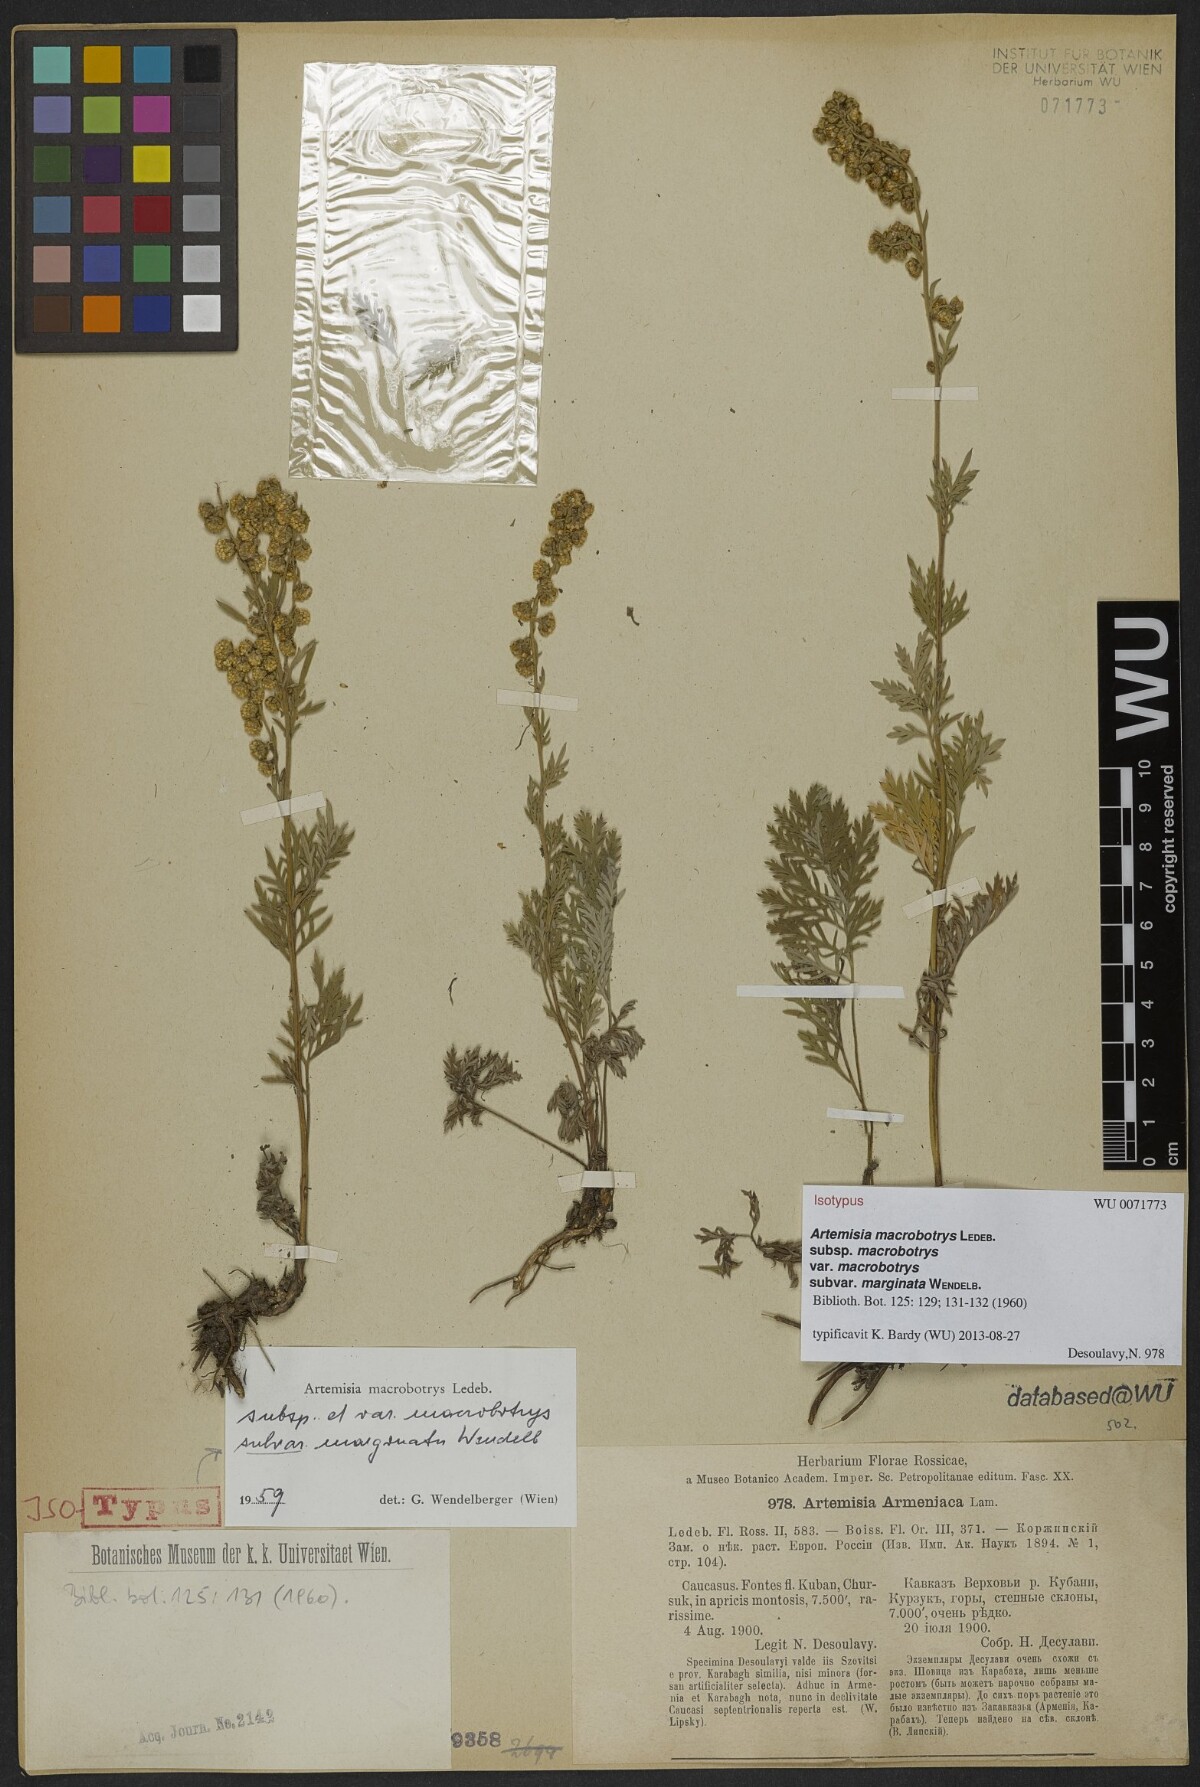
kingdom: Plantae
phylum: Tracheophyta
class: Magnoliopsida
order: Asterales
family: Asteraceae
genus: Artemisia
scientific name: Artemisia laciniata
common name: Siberian wormwood
